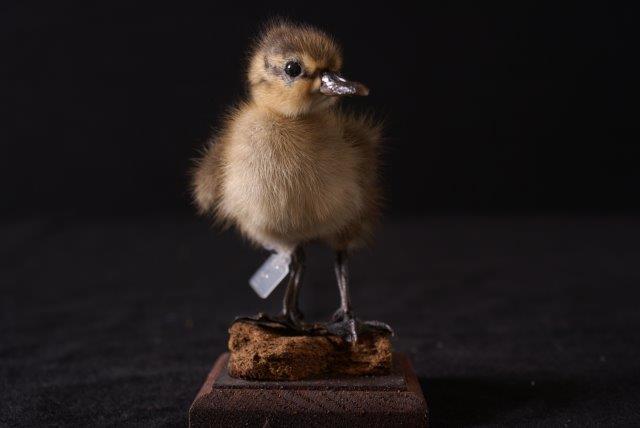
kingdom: Animalia
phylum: Chordata
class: Aves
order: Anseriformes
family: Anatidae
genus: Anas
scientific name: Anas platyrhynchos
